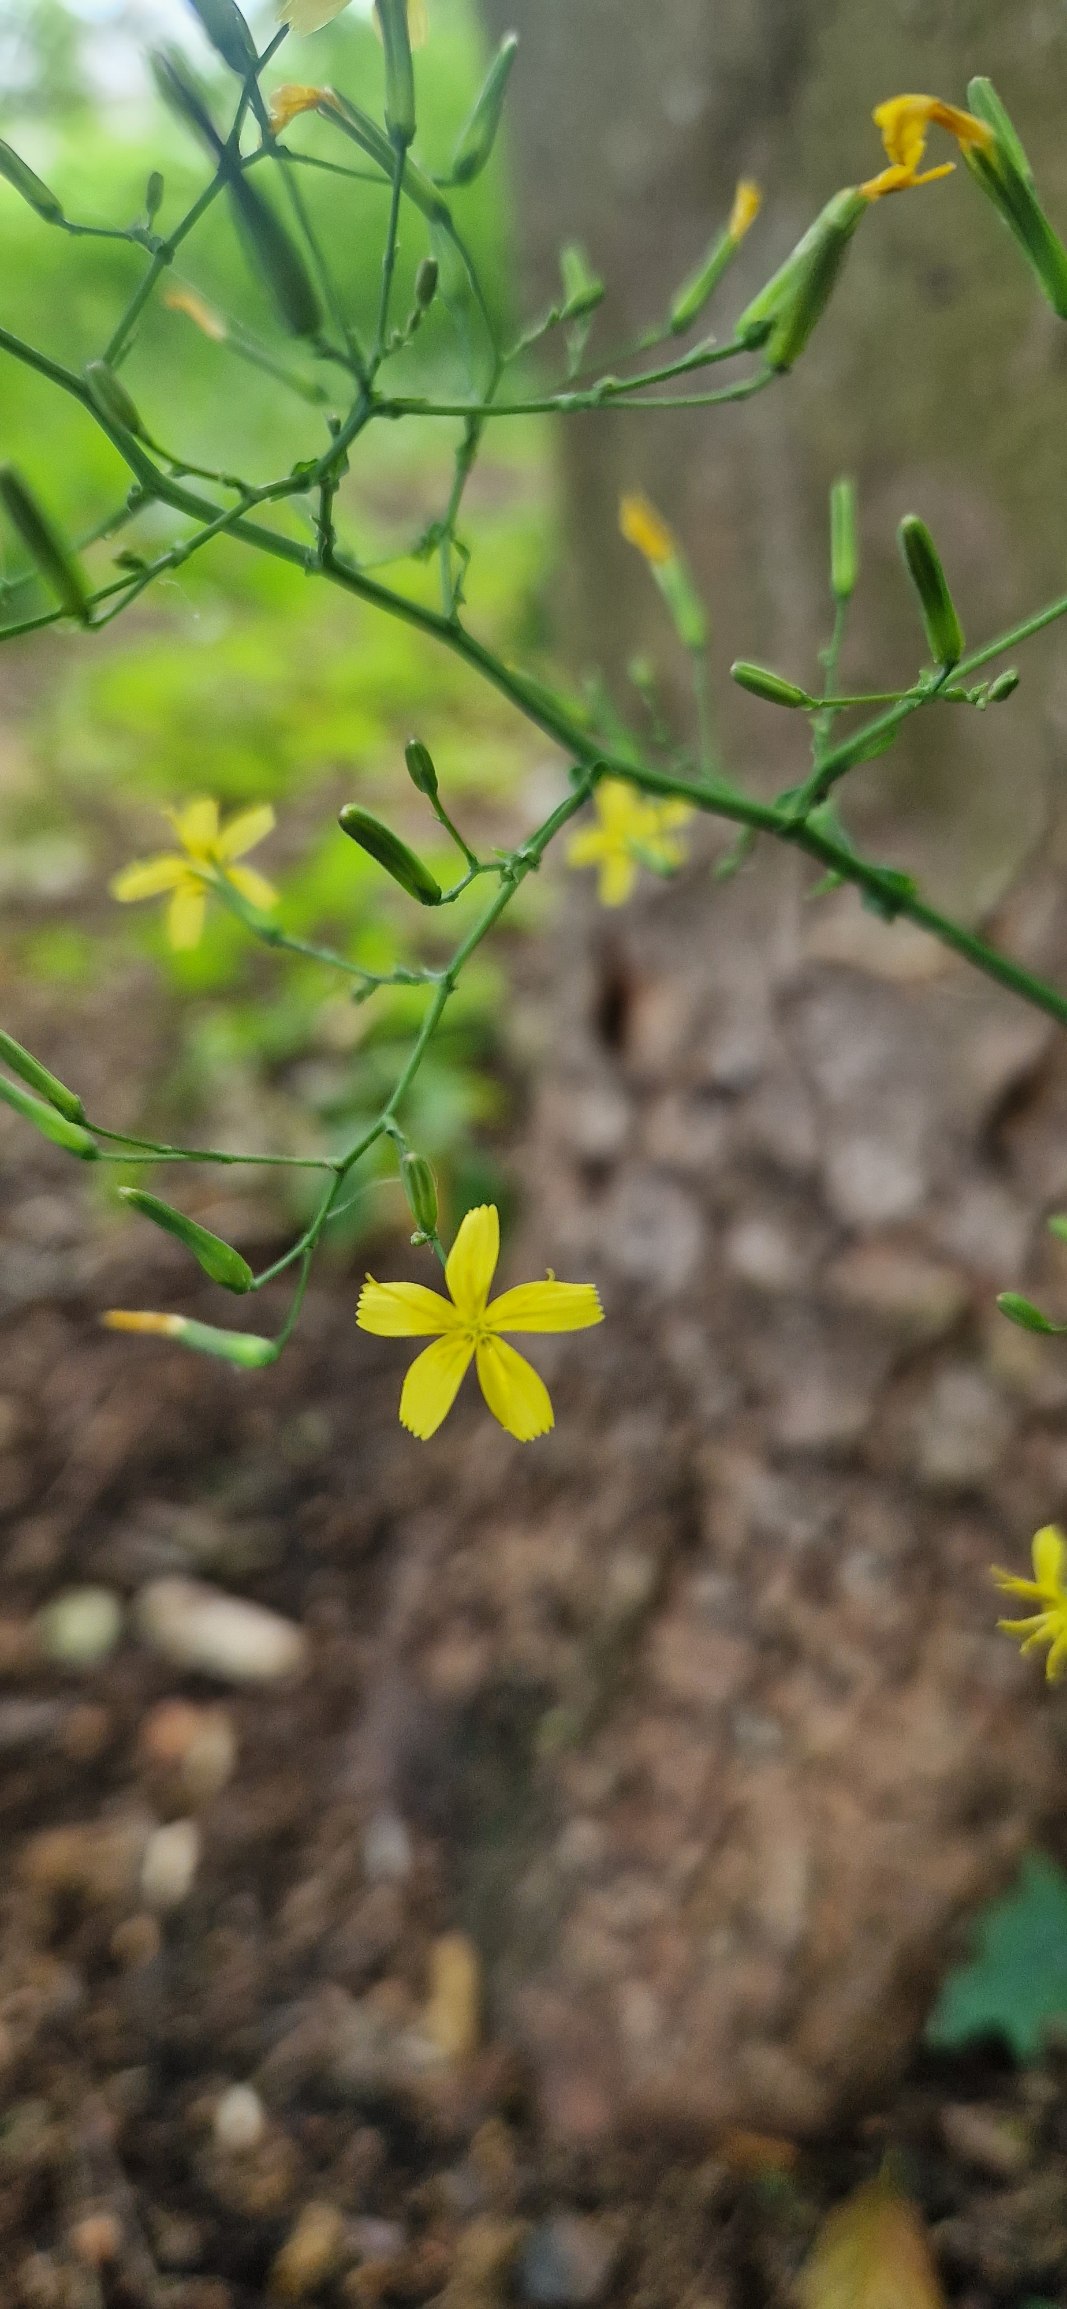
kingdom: Plantae
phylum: Tracheophyta
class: Magnoliopsida
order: Asterales
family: Asteraceae
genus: Mycelis
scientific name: Mycelis muralis
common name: Skov-salat
